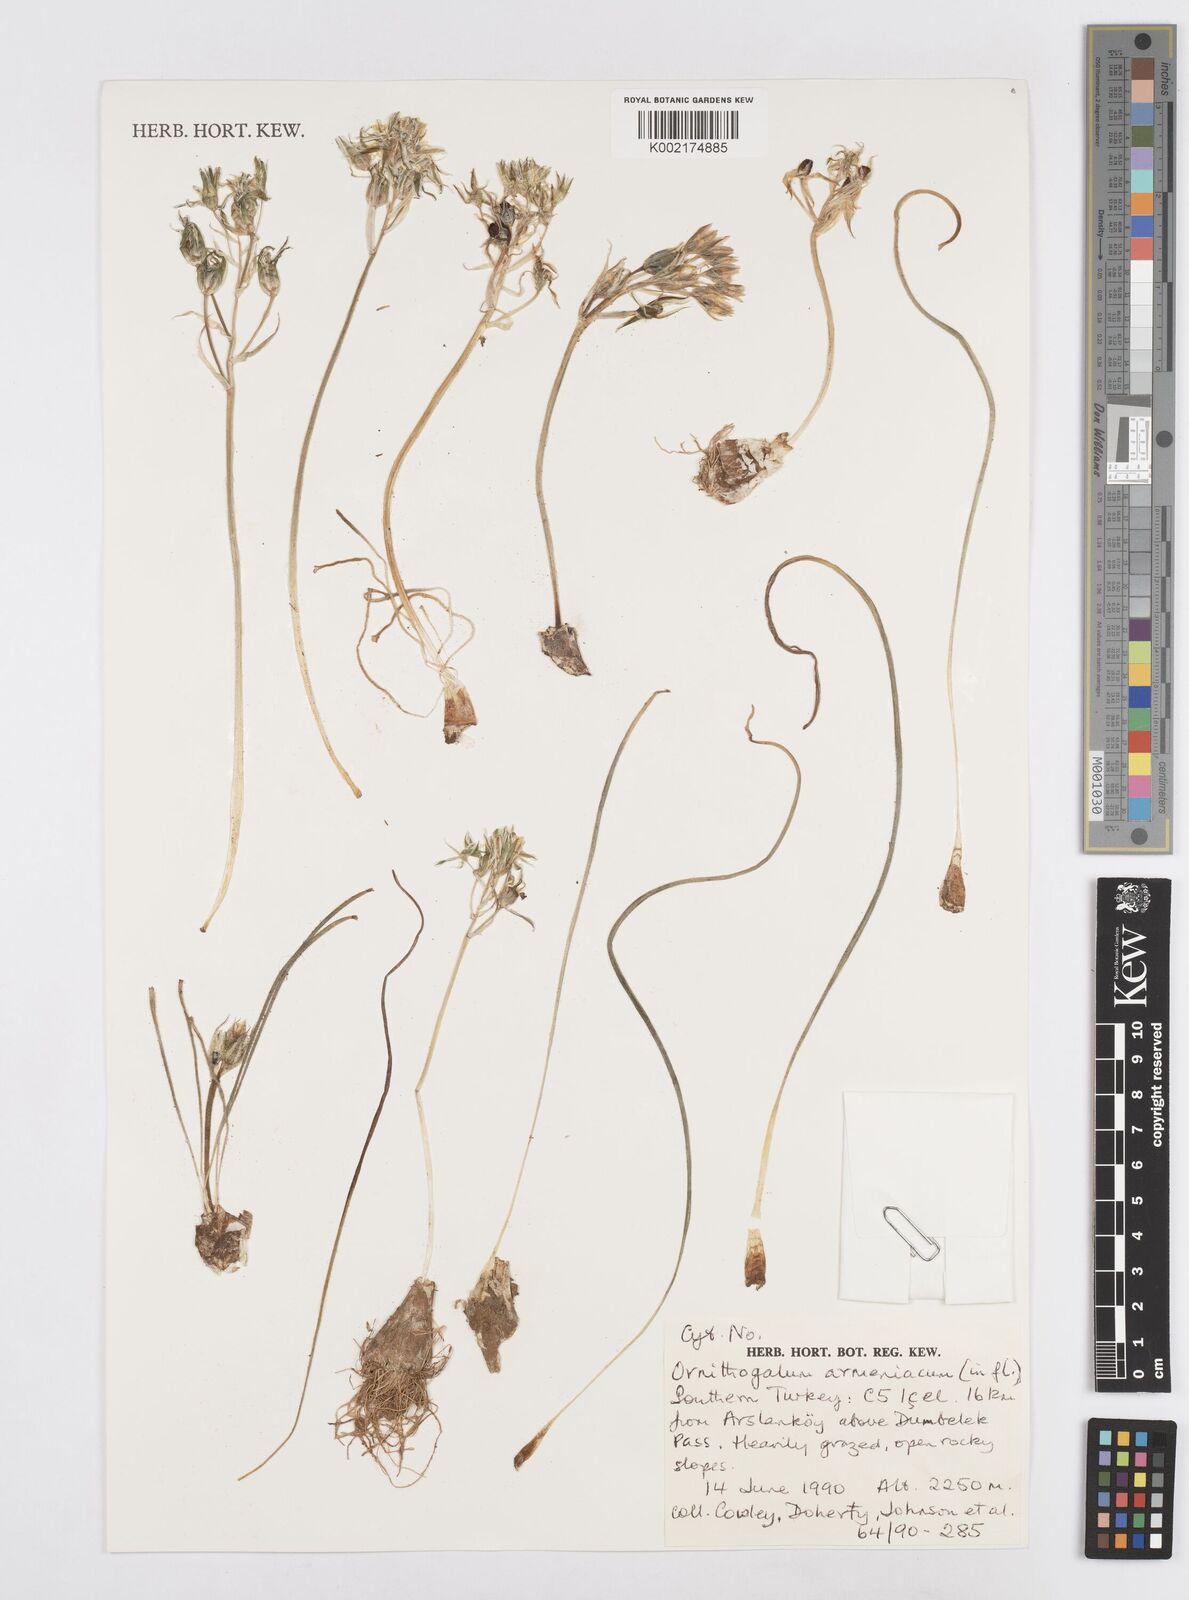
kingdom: Plantae
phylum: Tracheophyta
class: Liliopsida
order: Asparagales
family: Asparagaceae
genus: Ornithogalum
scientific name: Ornithogalum armeniacum
